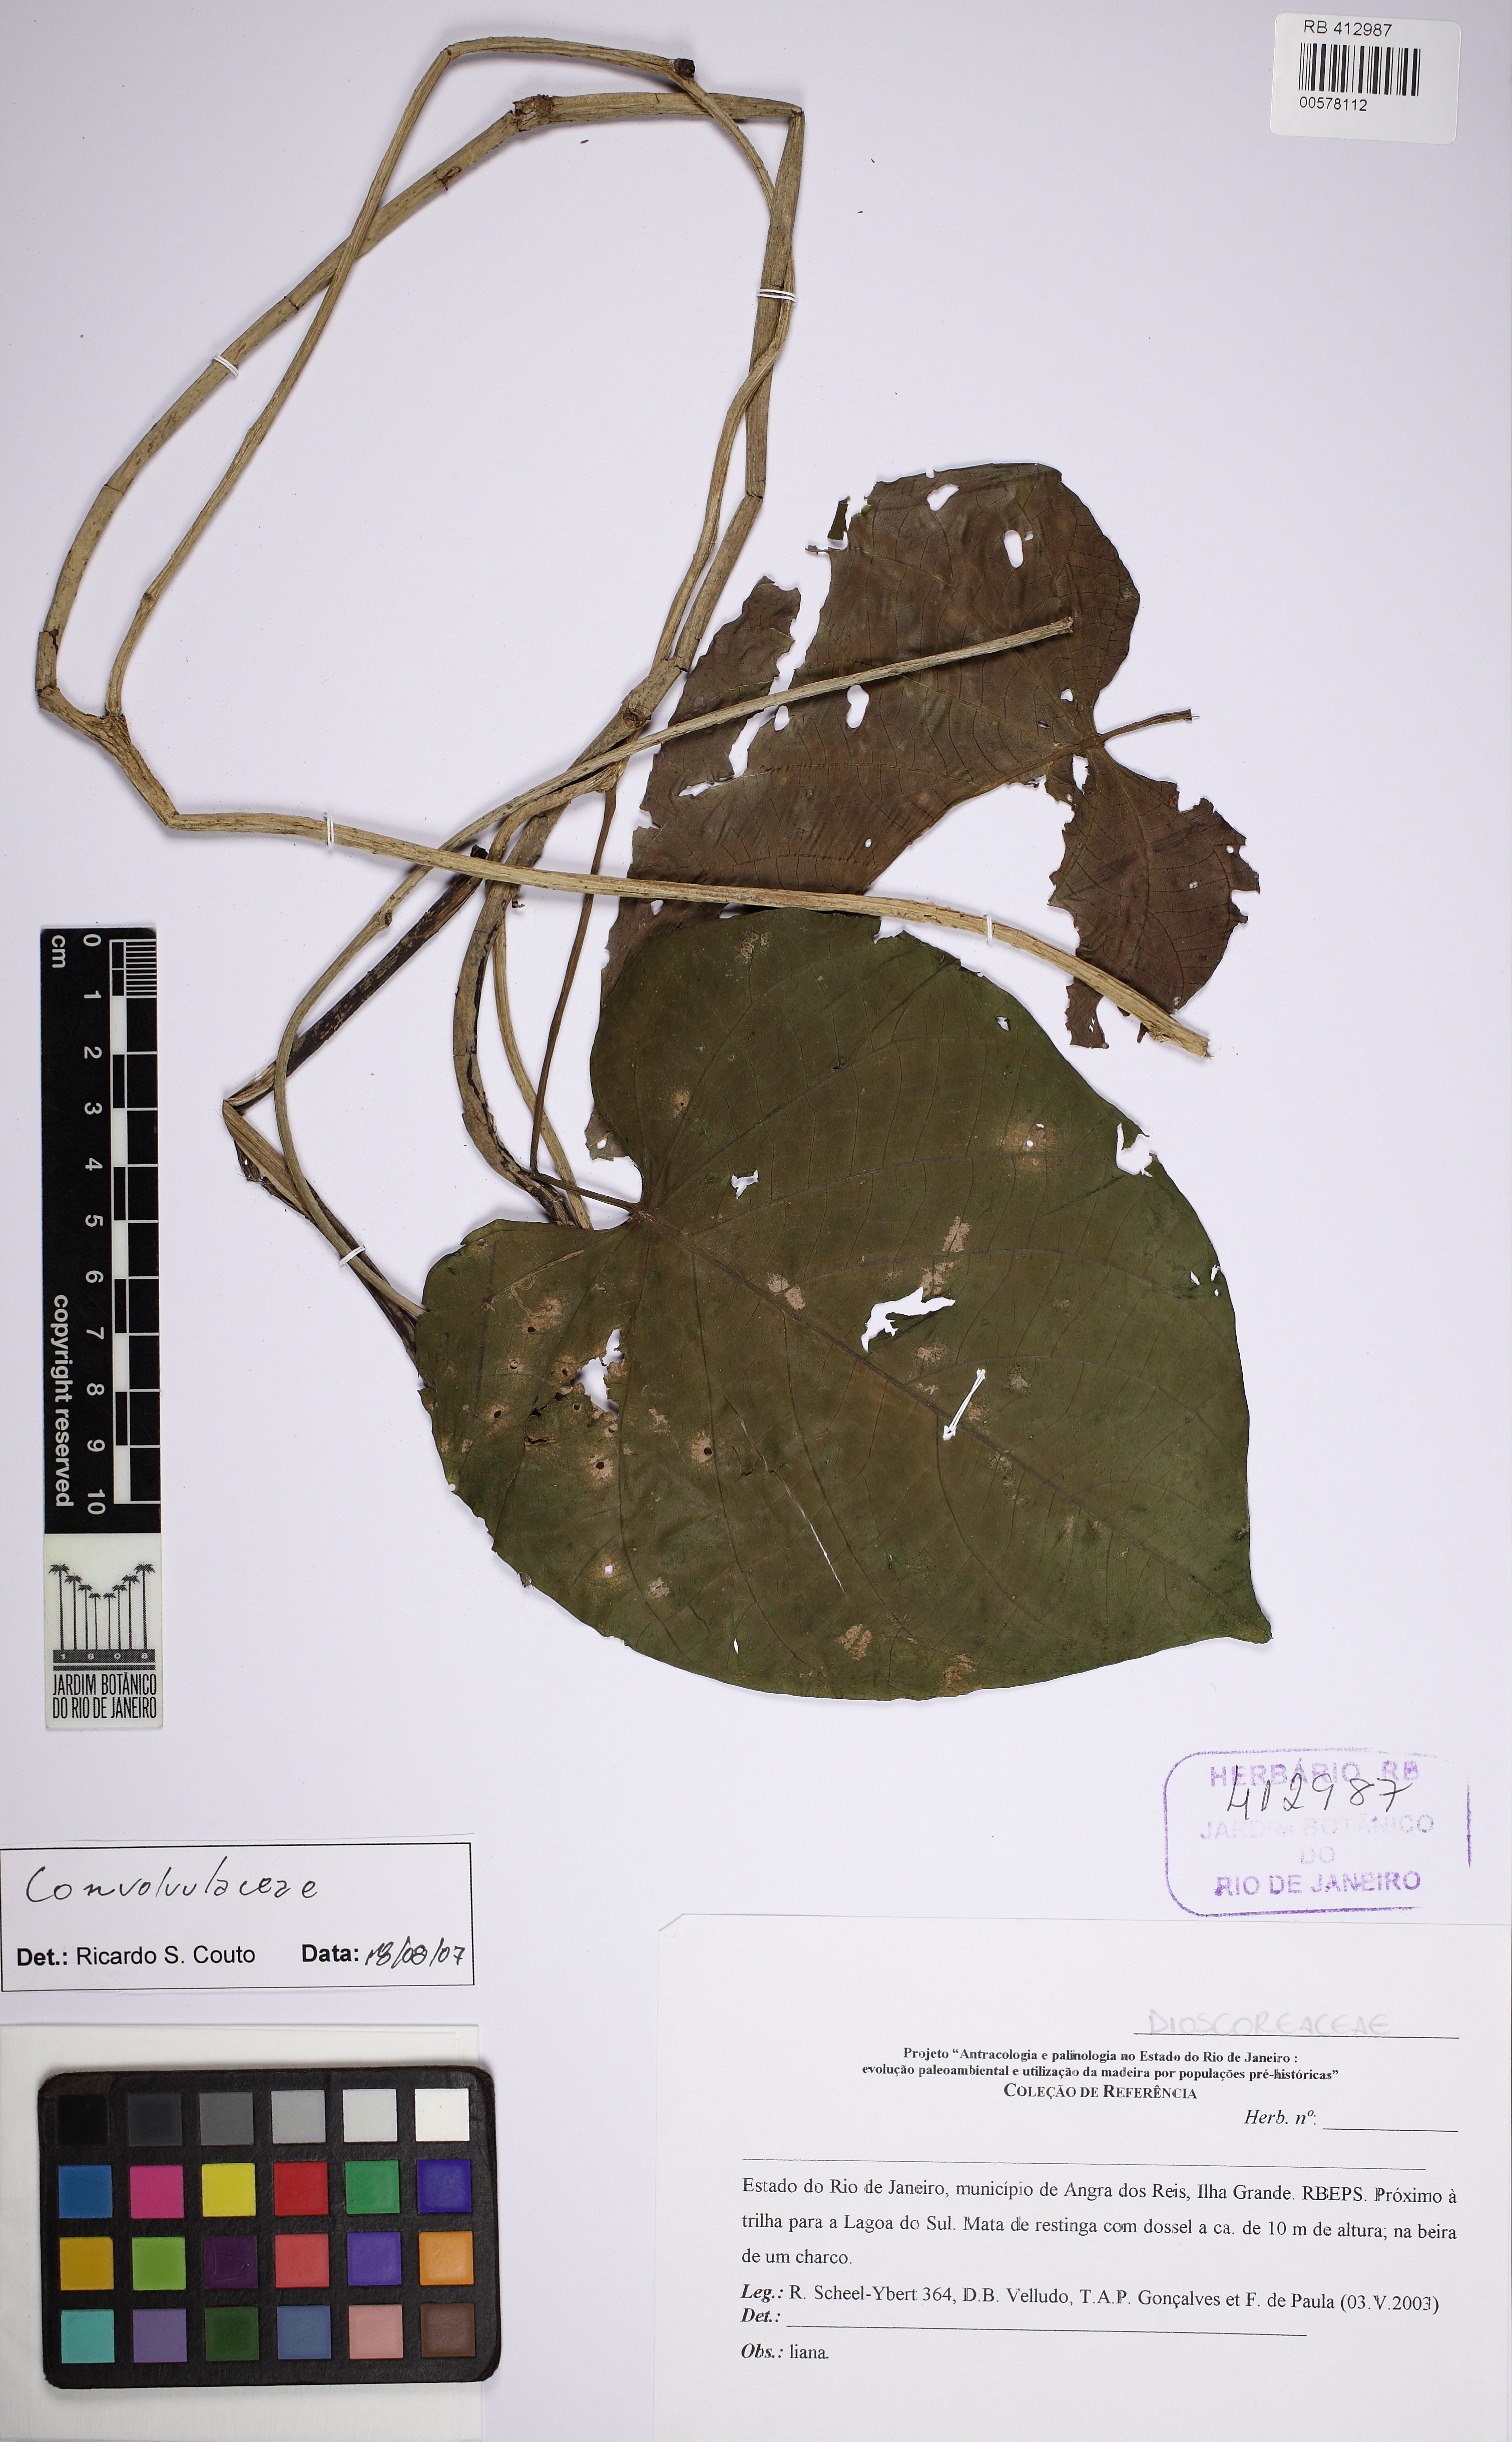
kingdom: Plantae
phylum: Tracheophyta
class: Magnoliopsida
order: Solanales
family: Convolvulaceae
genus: Ipomoea
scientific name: Ipomoea
